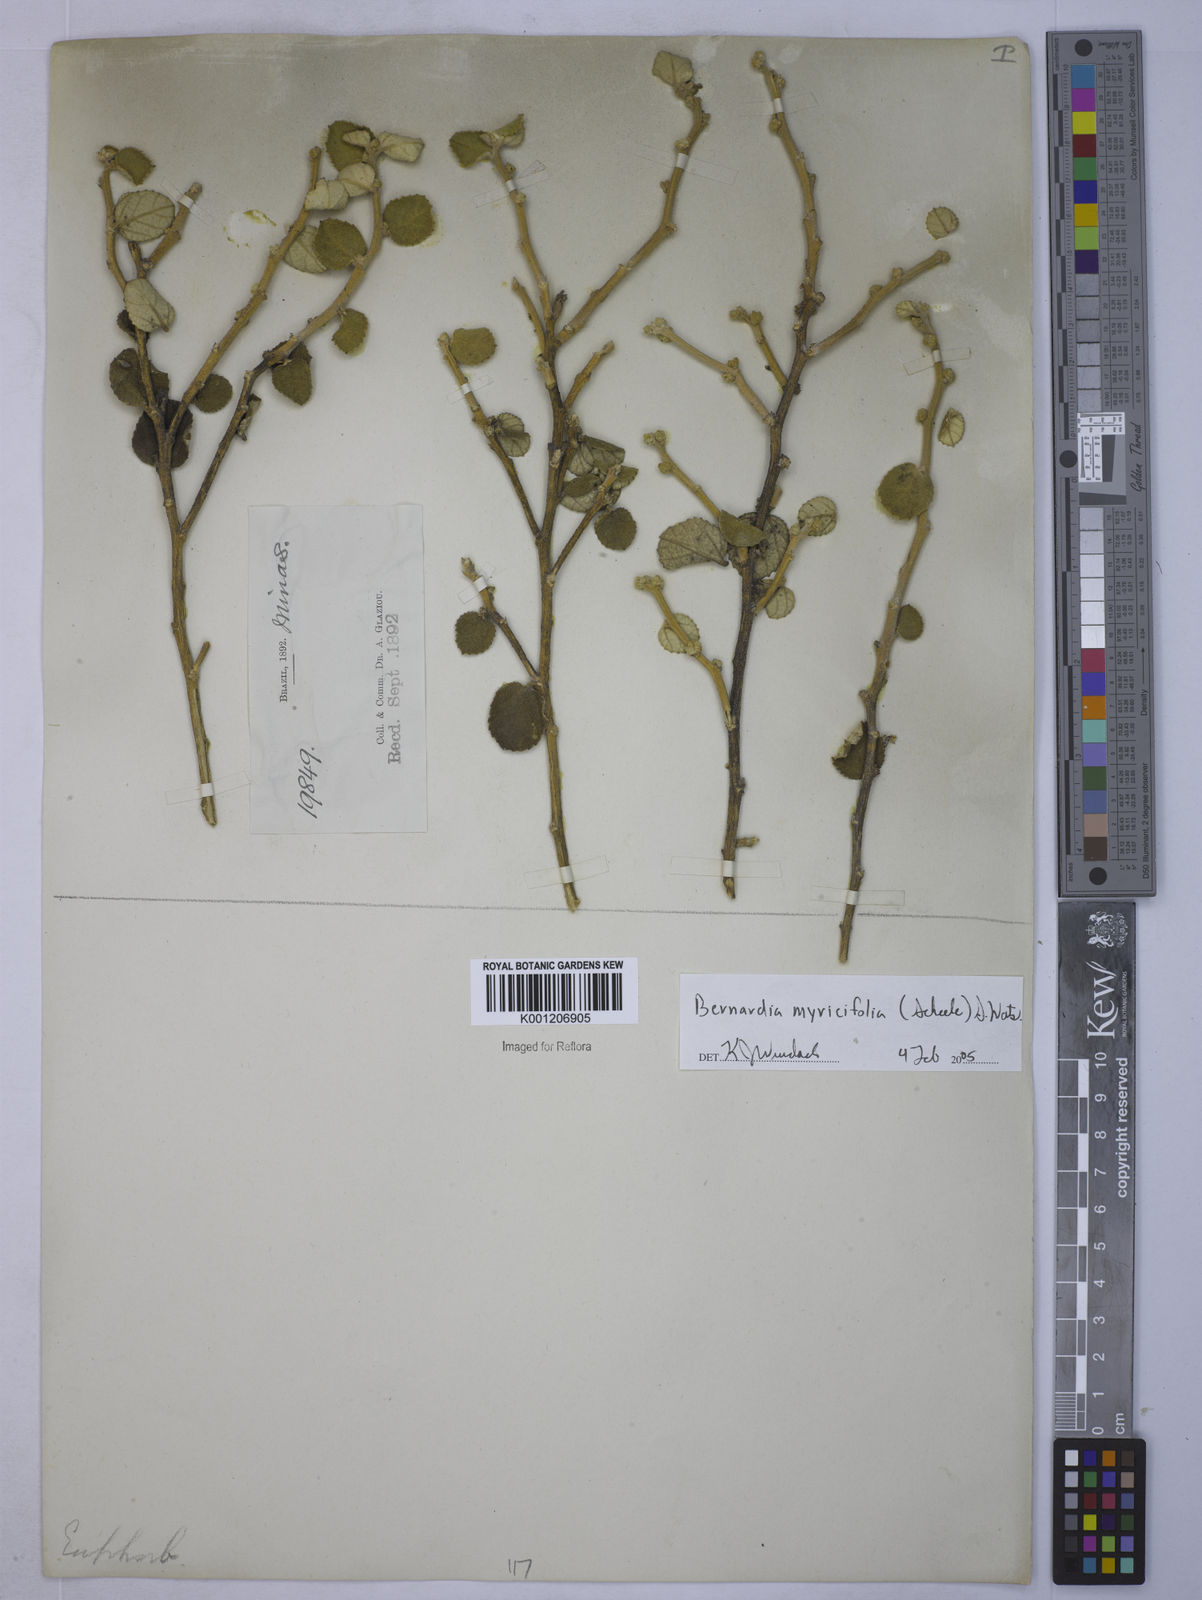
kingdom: Plantae
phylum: Tracheophyta
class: Magnoliopsida
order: Malpighiales
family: Euphorbiaceae
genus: Bernardia
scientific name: Bernardia crassifolia
